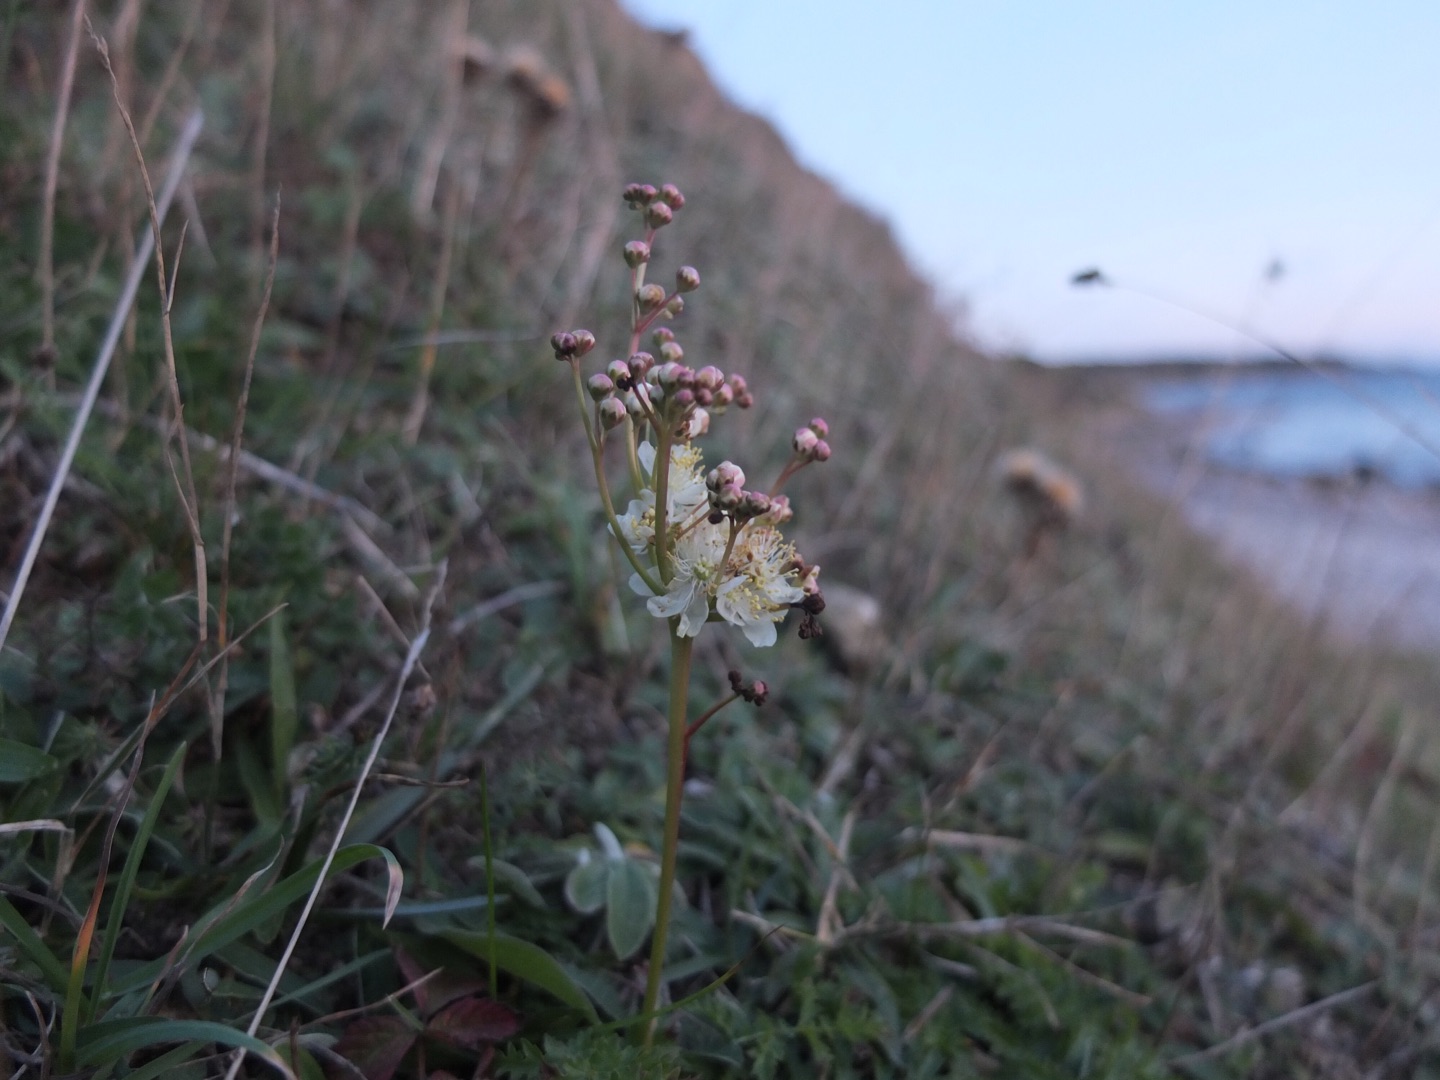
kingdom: Plantae
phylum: Tracheophyta
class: Magnoliopsida
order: Rosales
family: Rosaceae
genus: Filipendula
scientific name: Filipendula vulgaris
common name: Knoldet mjødurt
